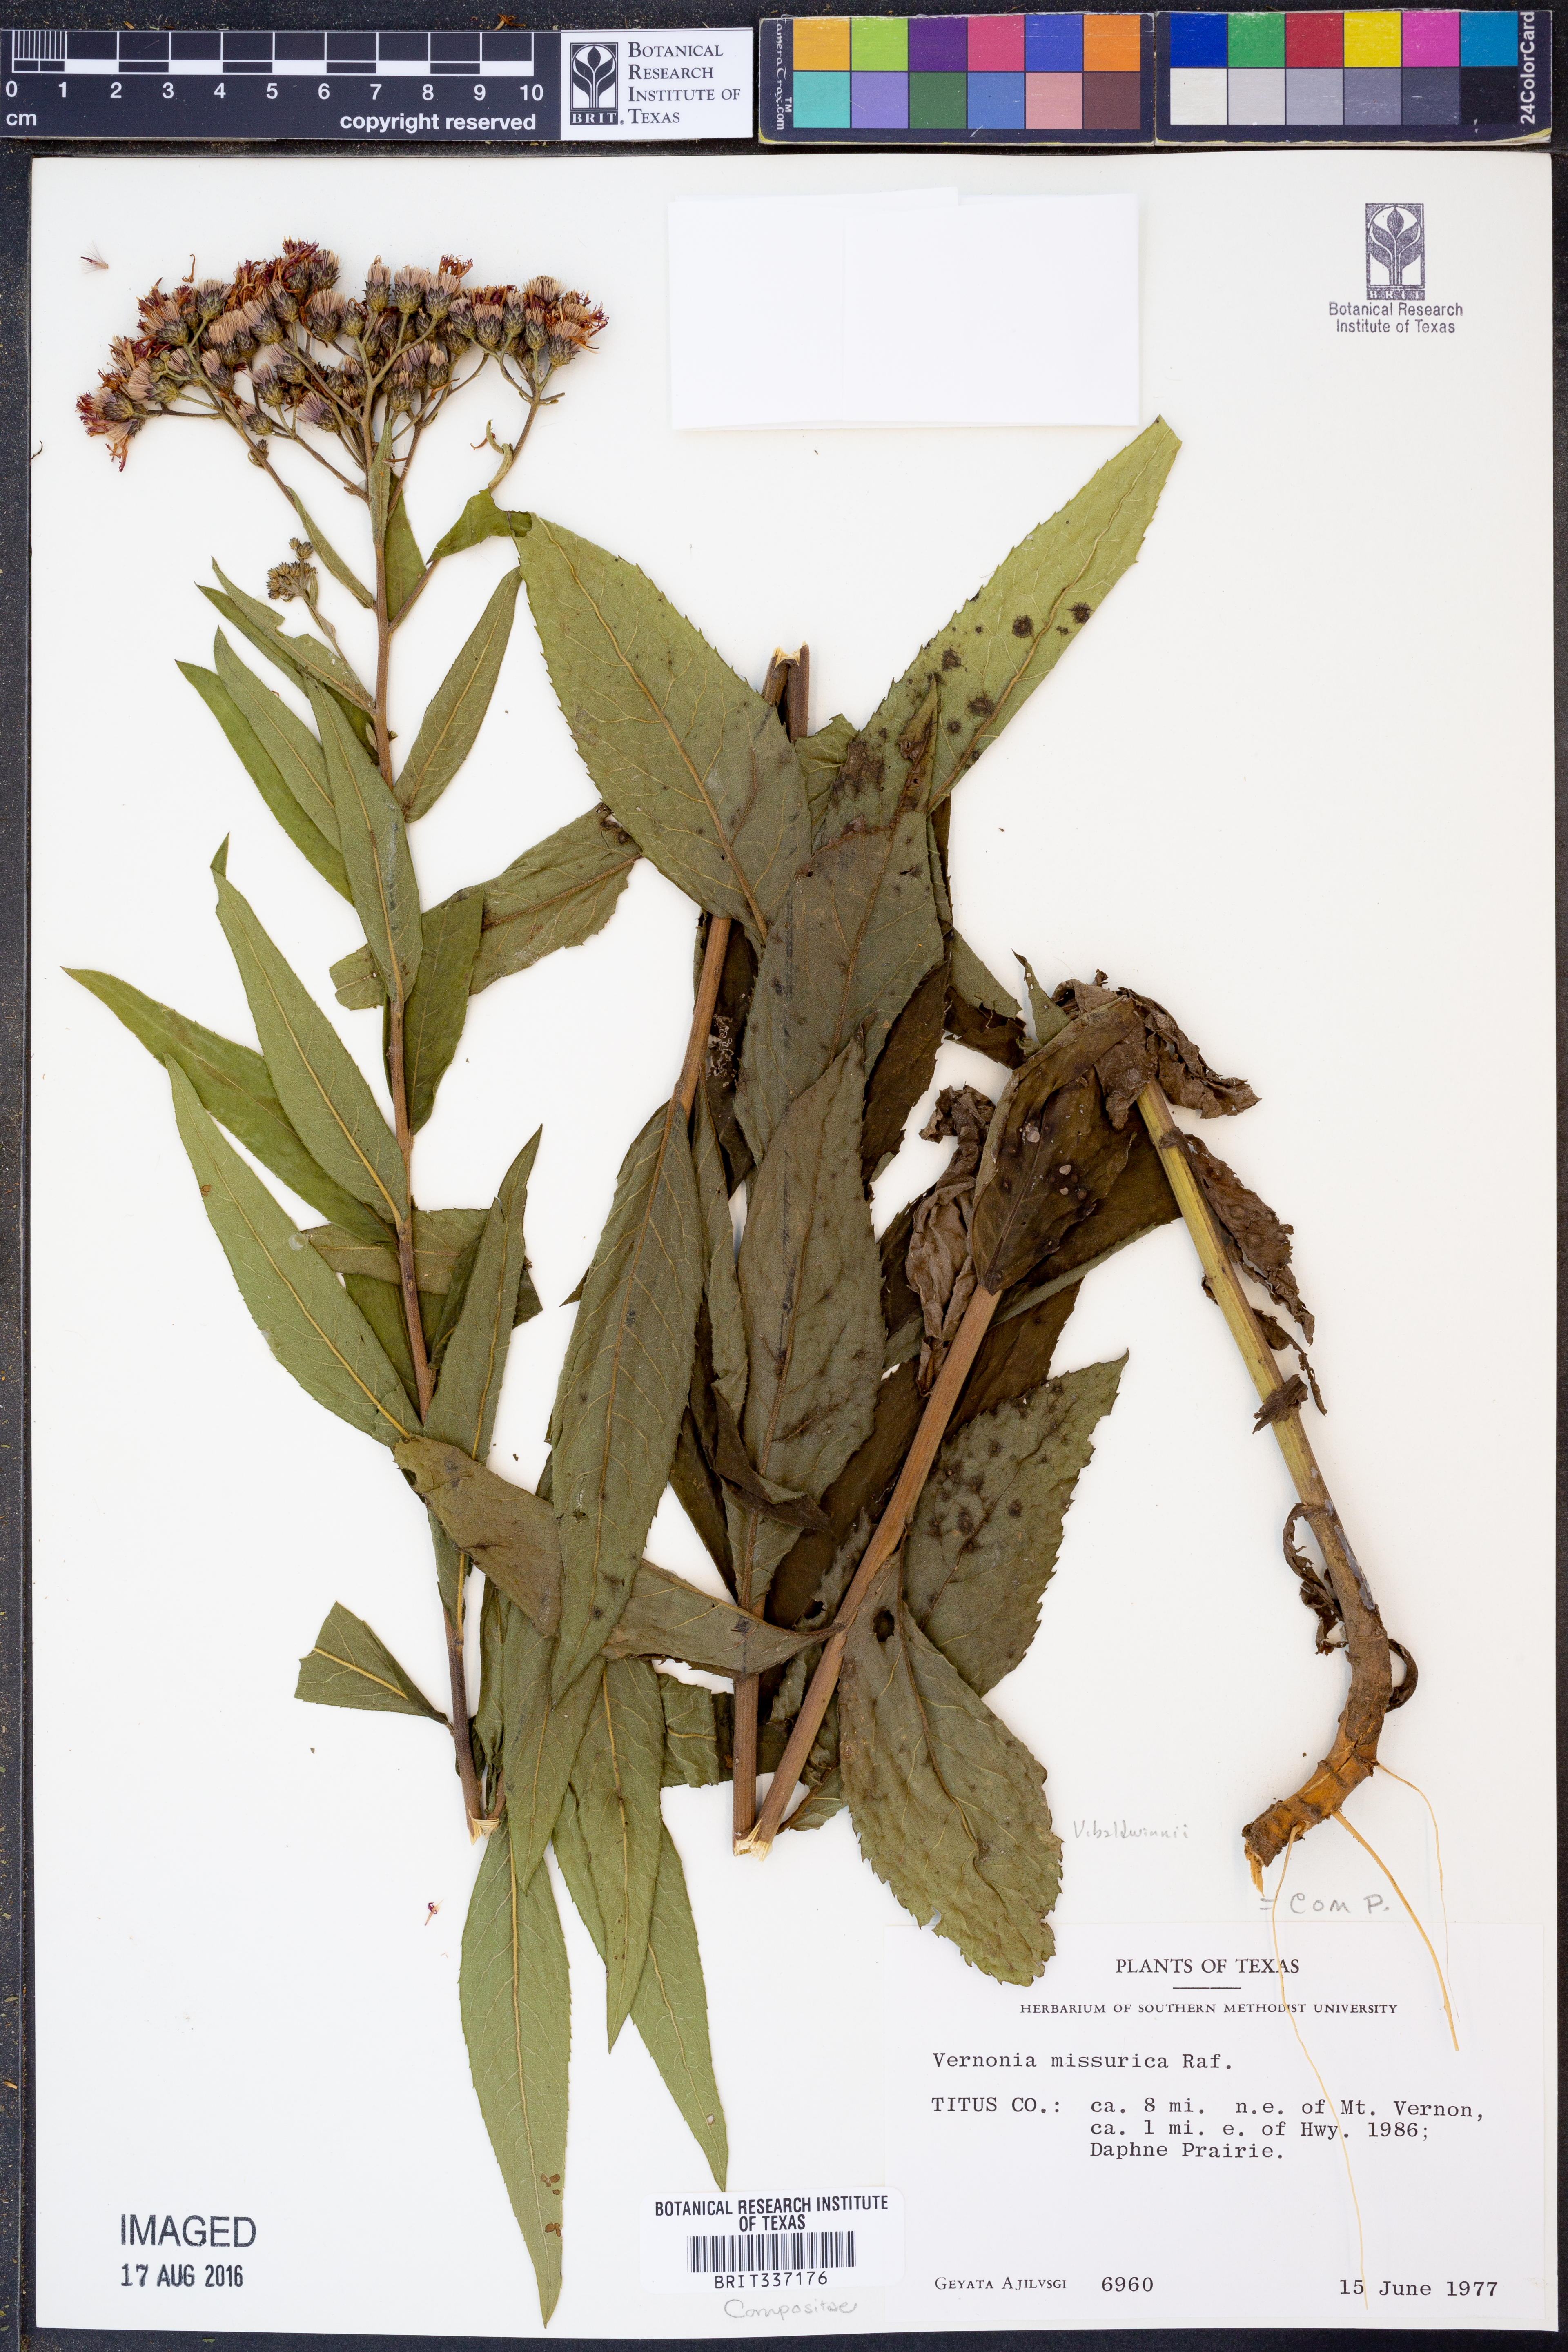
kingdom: Plantae
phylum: Tracheophyta
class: Magnoliopsida
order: Asterales
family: Asteraceae
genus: Vernonia
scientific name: Vernonia baldwinii
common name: Western ironweed
